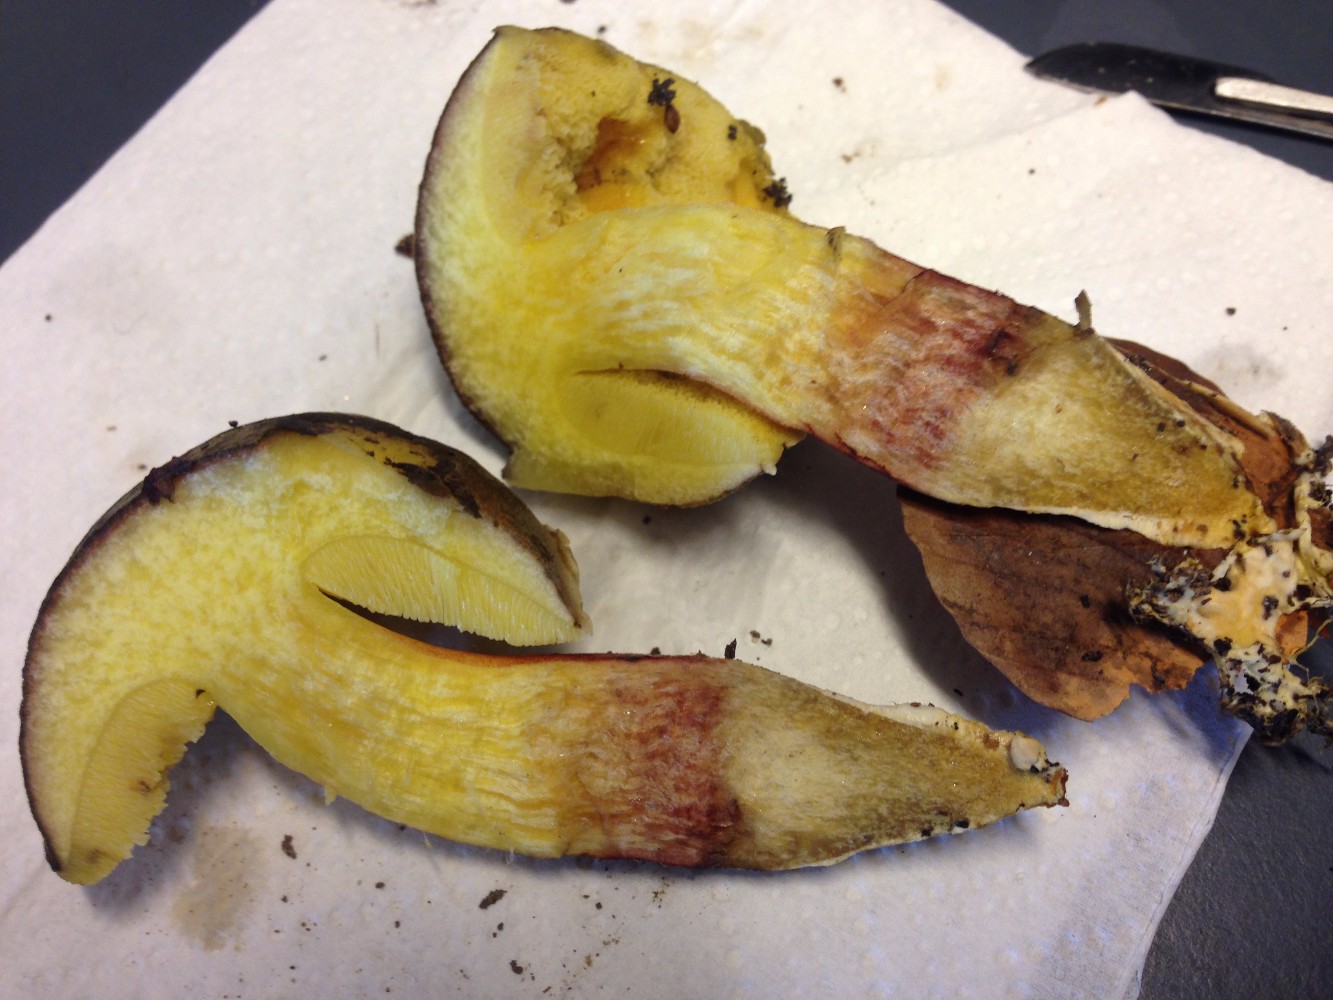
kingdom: Fungi
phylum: Basidiomycota
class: Agaricomycetes
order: Boletales
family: Boletaceae
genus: Xerocomellus
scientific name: Xerocomellus pruinatus
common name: dugget rørhat
